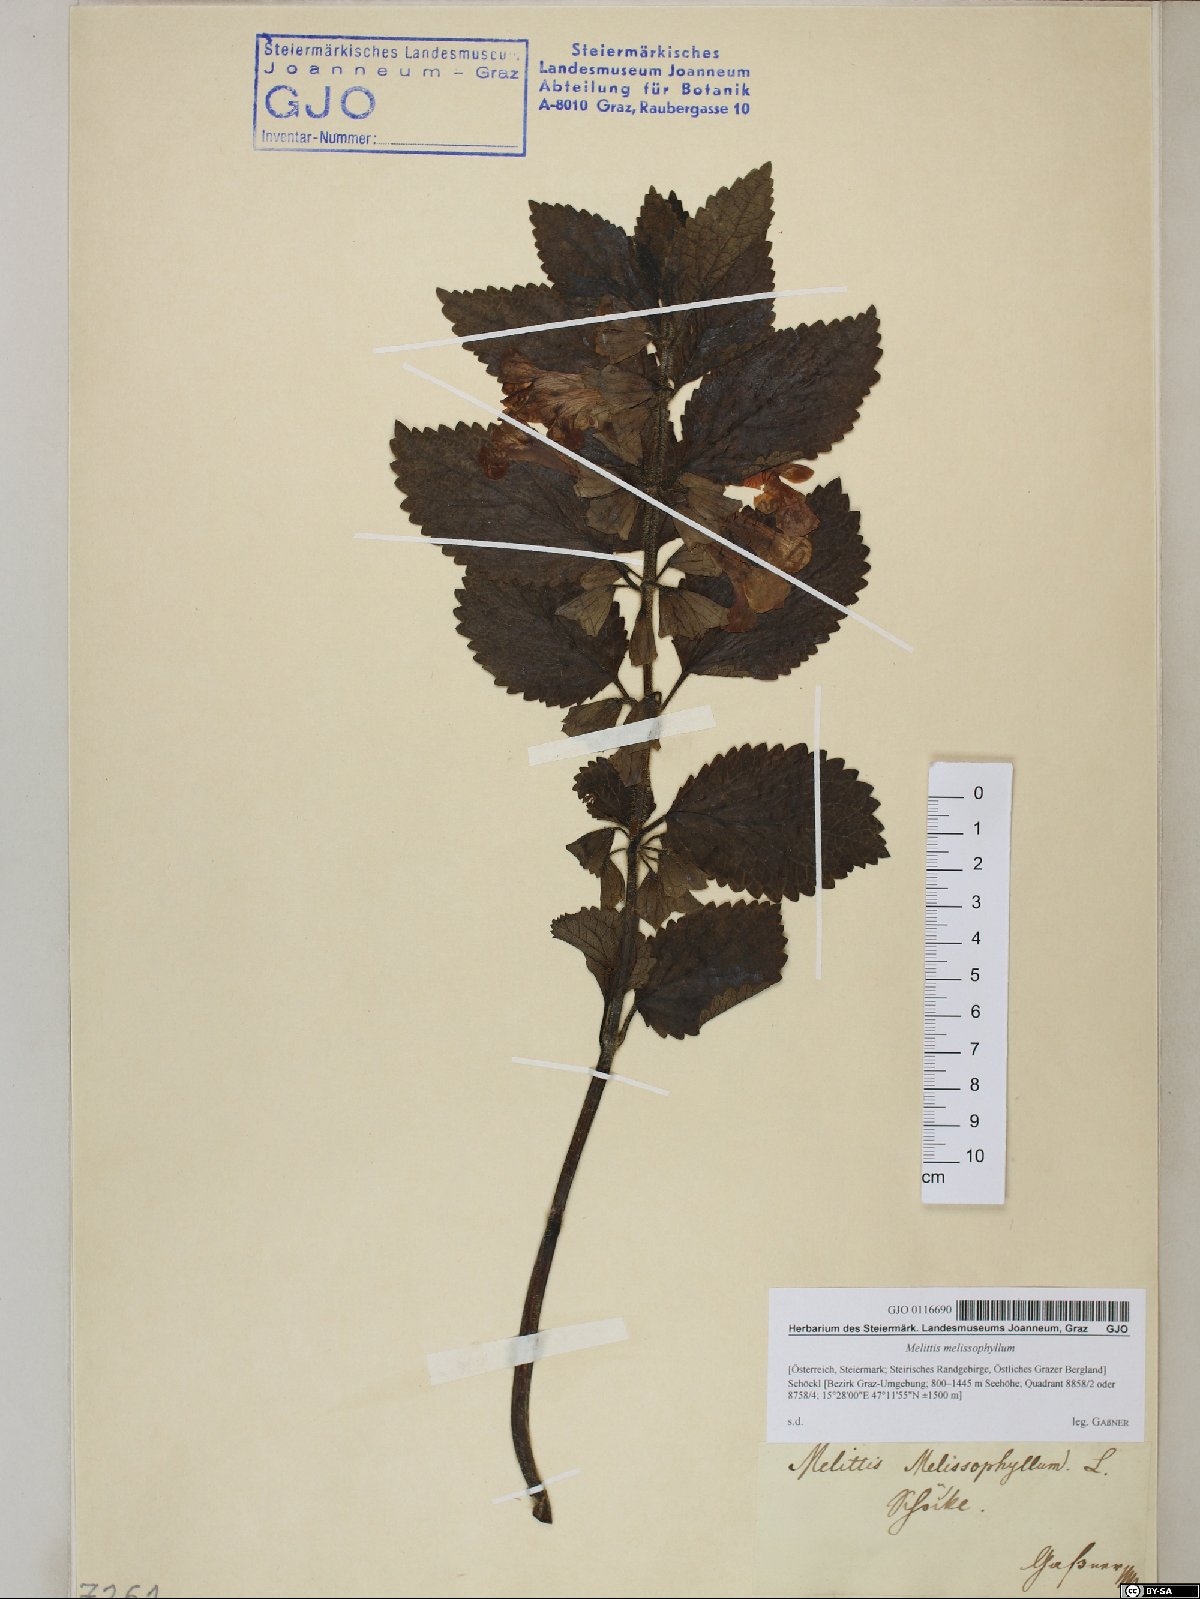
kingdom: Plantae
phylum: Tracheophyta
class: Magnoliopsida
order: Lamiales
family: Lamiaceae
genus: Melittis
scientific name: Melittis melissophyllum
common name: Bastard balm
